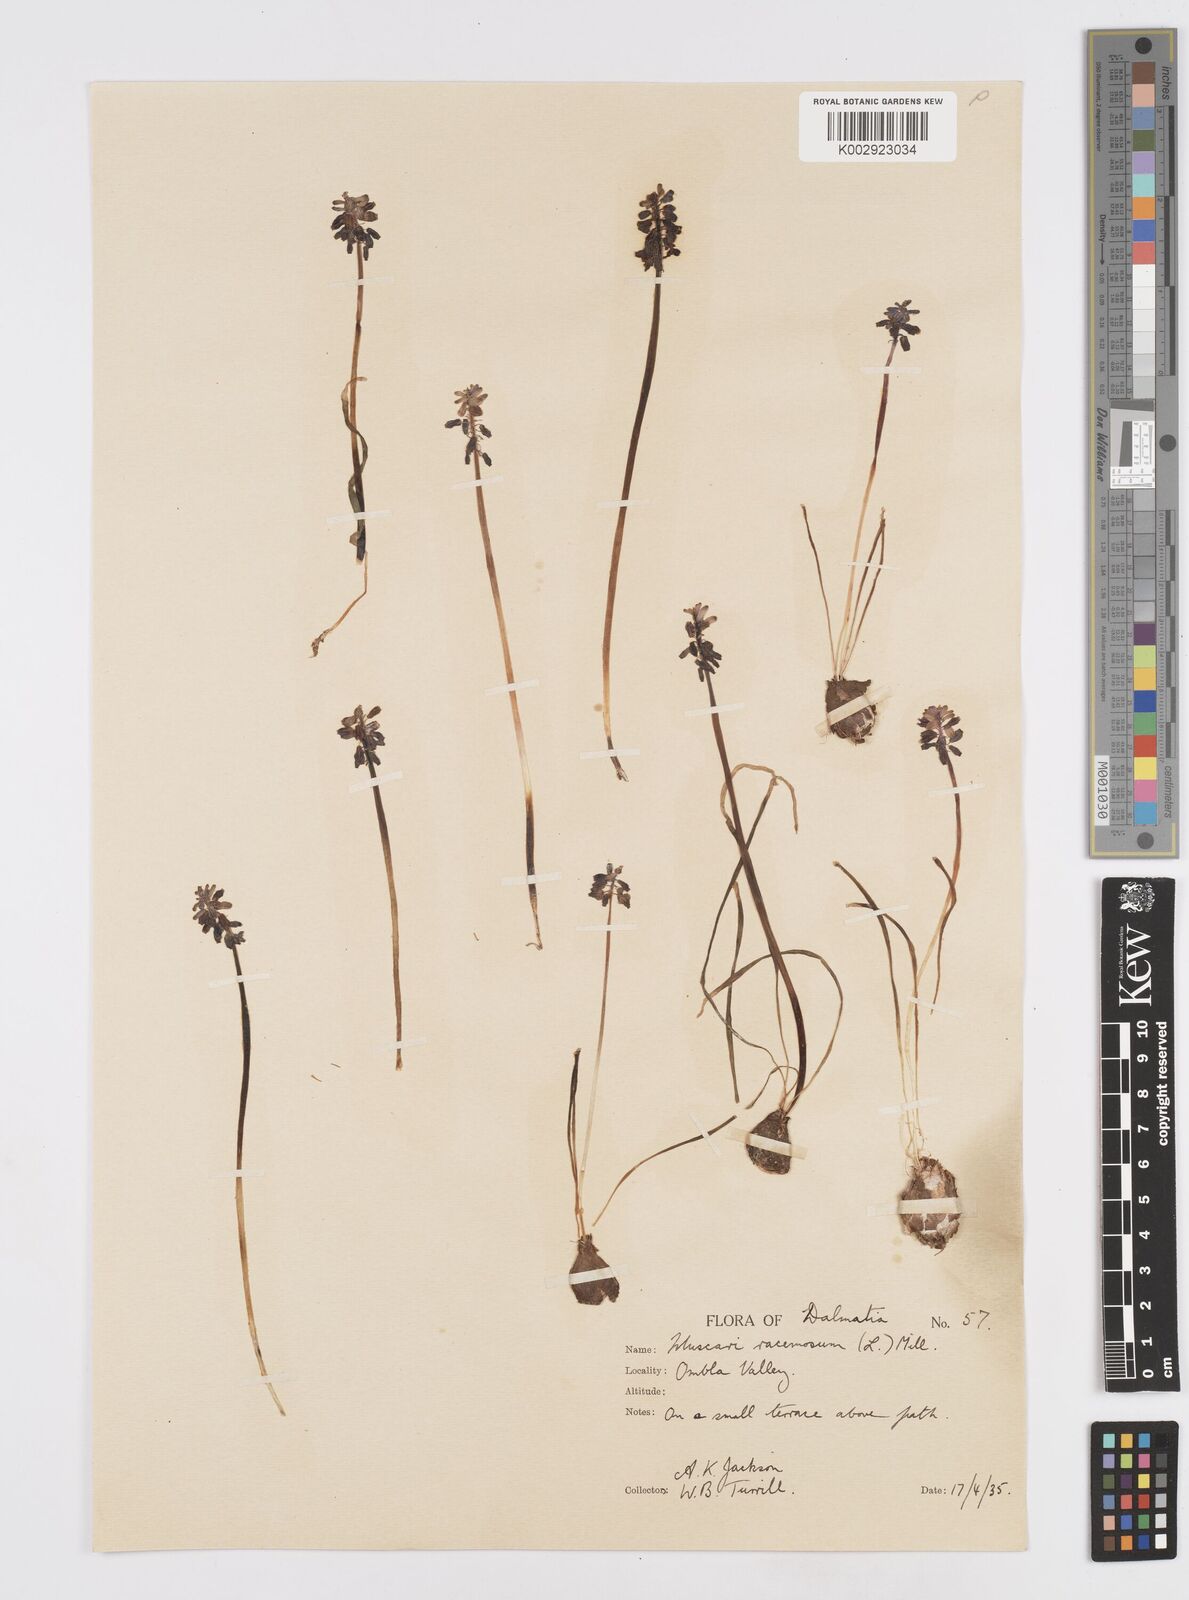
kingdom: Plantae
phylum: Tracheophyta
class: Liliopsida
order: Asparagales
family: Asparagaceae
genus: Muscarimia
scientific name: Muscarimia muscari
